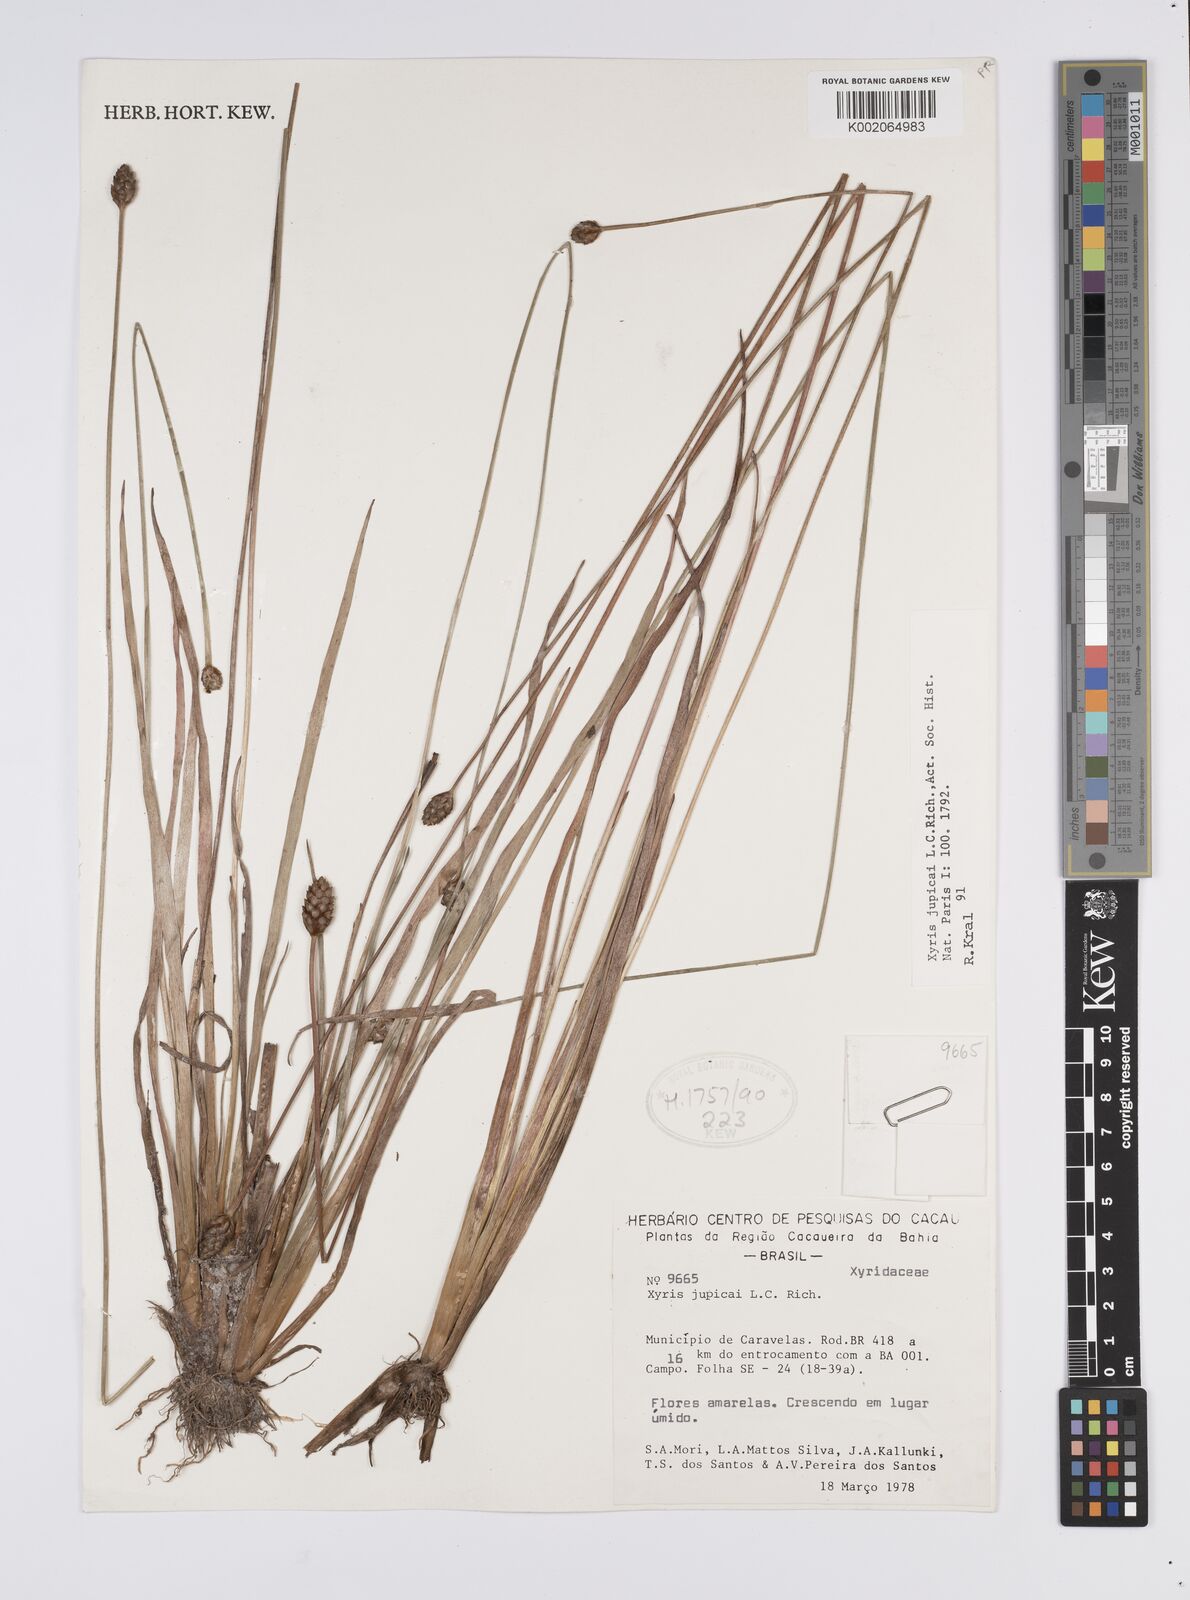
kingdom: Plantae
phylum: Tracheophyta
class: Liliopsida
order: Poales
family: Xyridaceae
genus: Xyris
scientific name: Xyris jupicai
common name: Richard's yelloweyed grass
